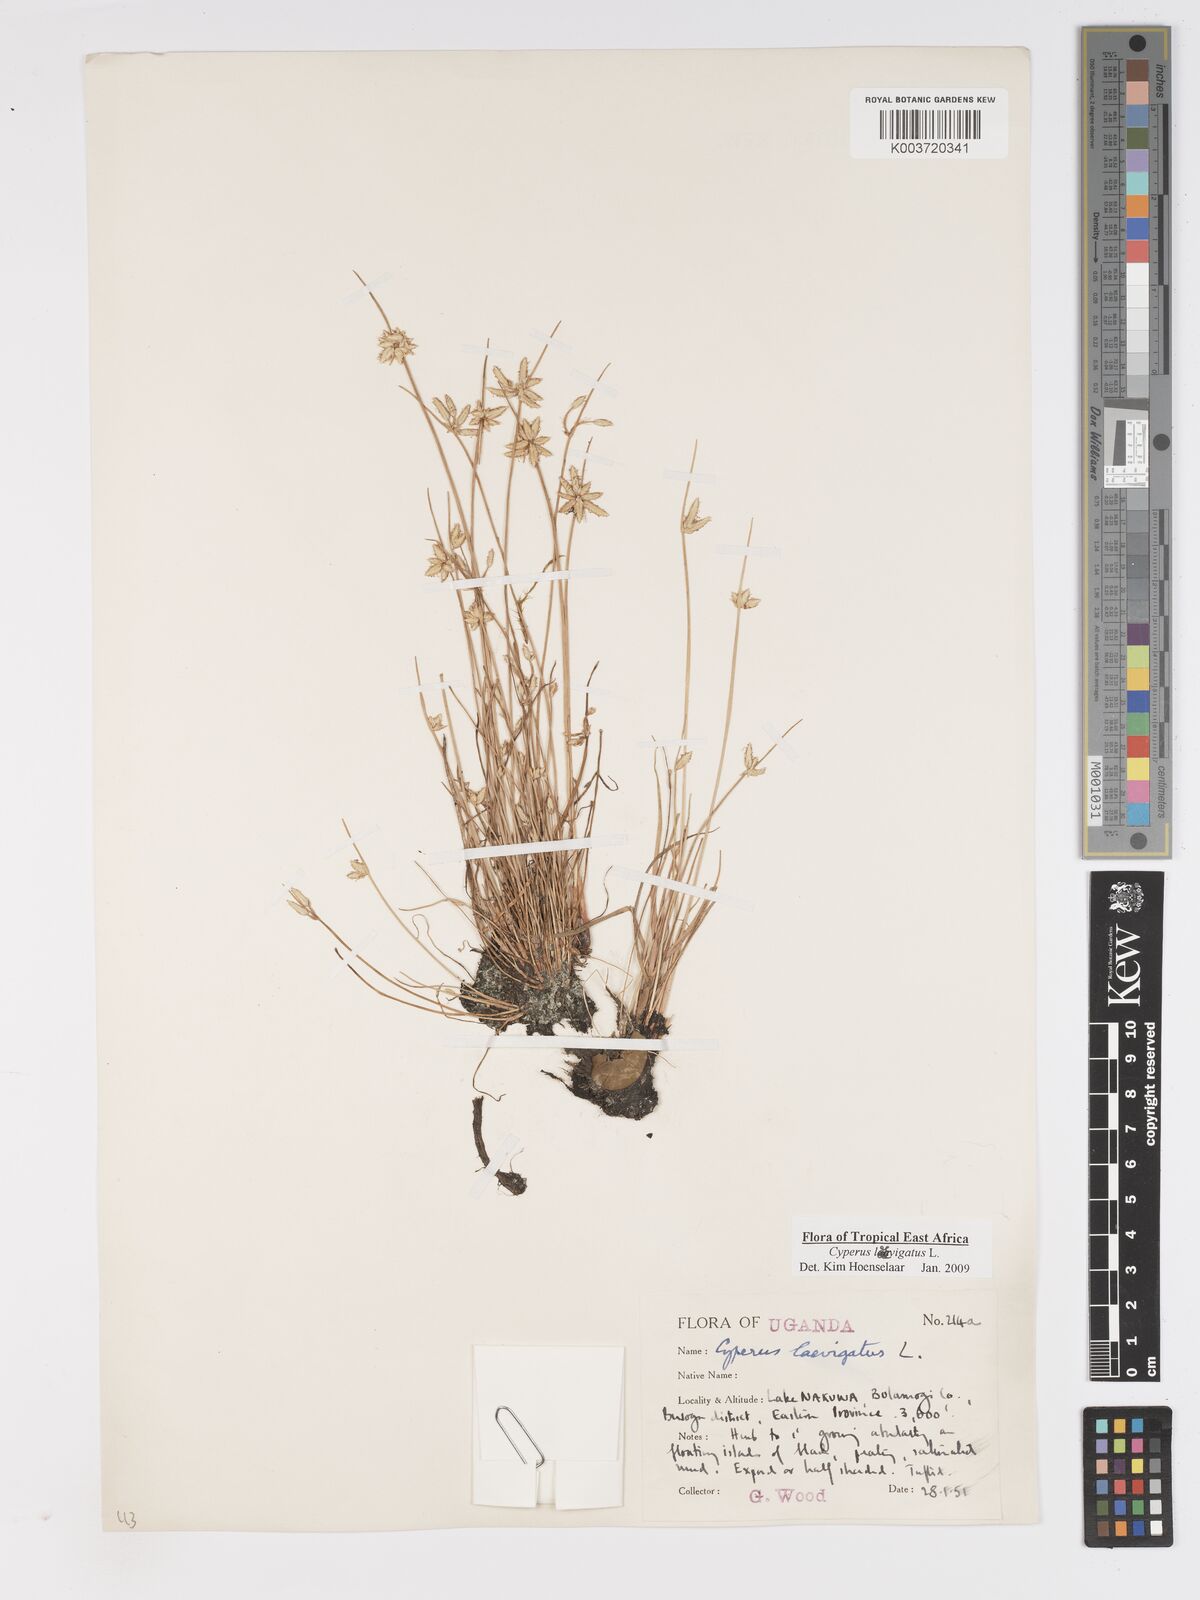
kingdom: Plantae
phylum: Tracheophyta
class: Liliopsida
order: Poales
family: Cyperaceae
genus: Cyperus
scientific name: Cyperus laevigatus
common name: Smooth flat sedge
